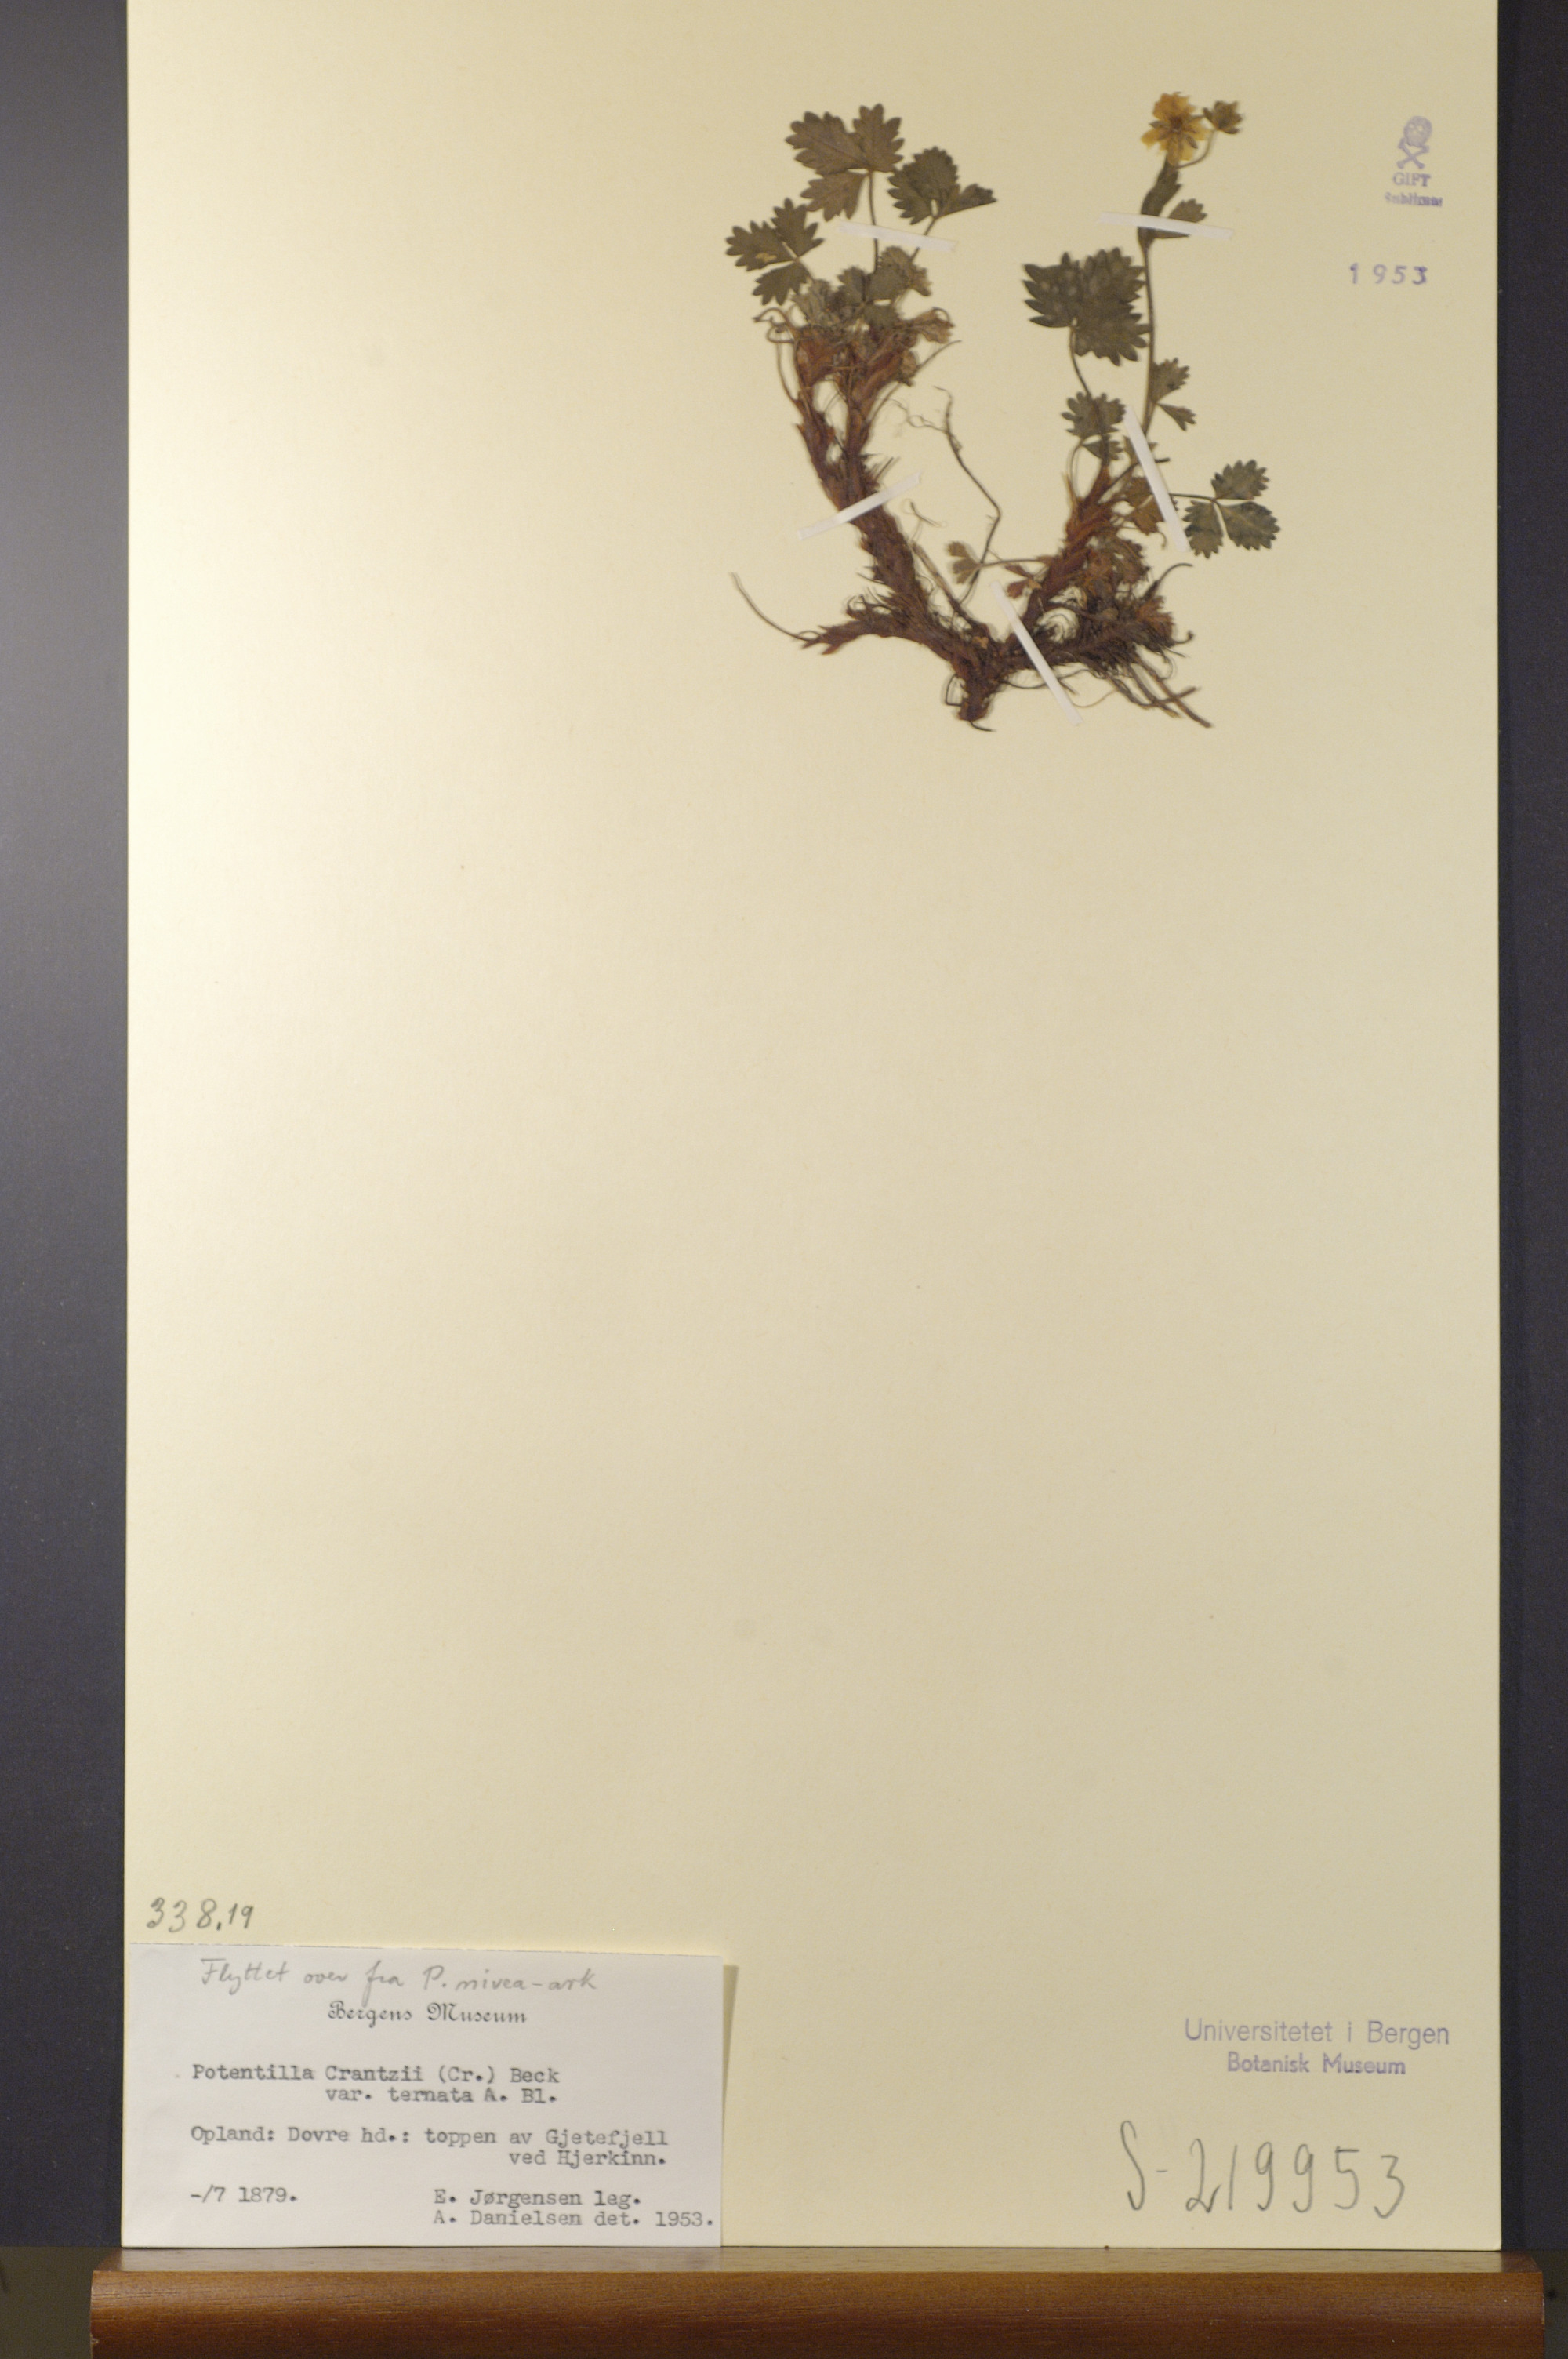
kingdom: Plantae
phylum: Tracheophyta
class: Magnoliopsida
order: Rosales
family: Rosaceae
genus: Potentilla
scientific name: Potentilla crantzii
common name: Alpine cinquefoil
